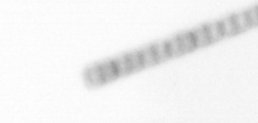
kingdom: Chromista
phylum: Ochrophyta
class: Bacillariophyceae
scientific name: Bacillariophyceae
